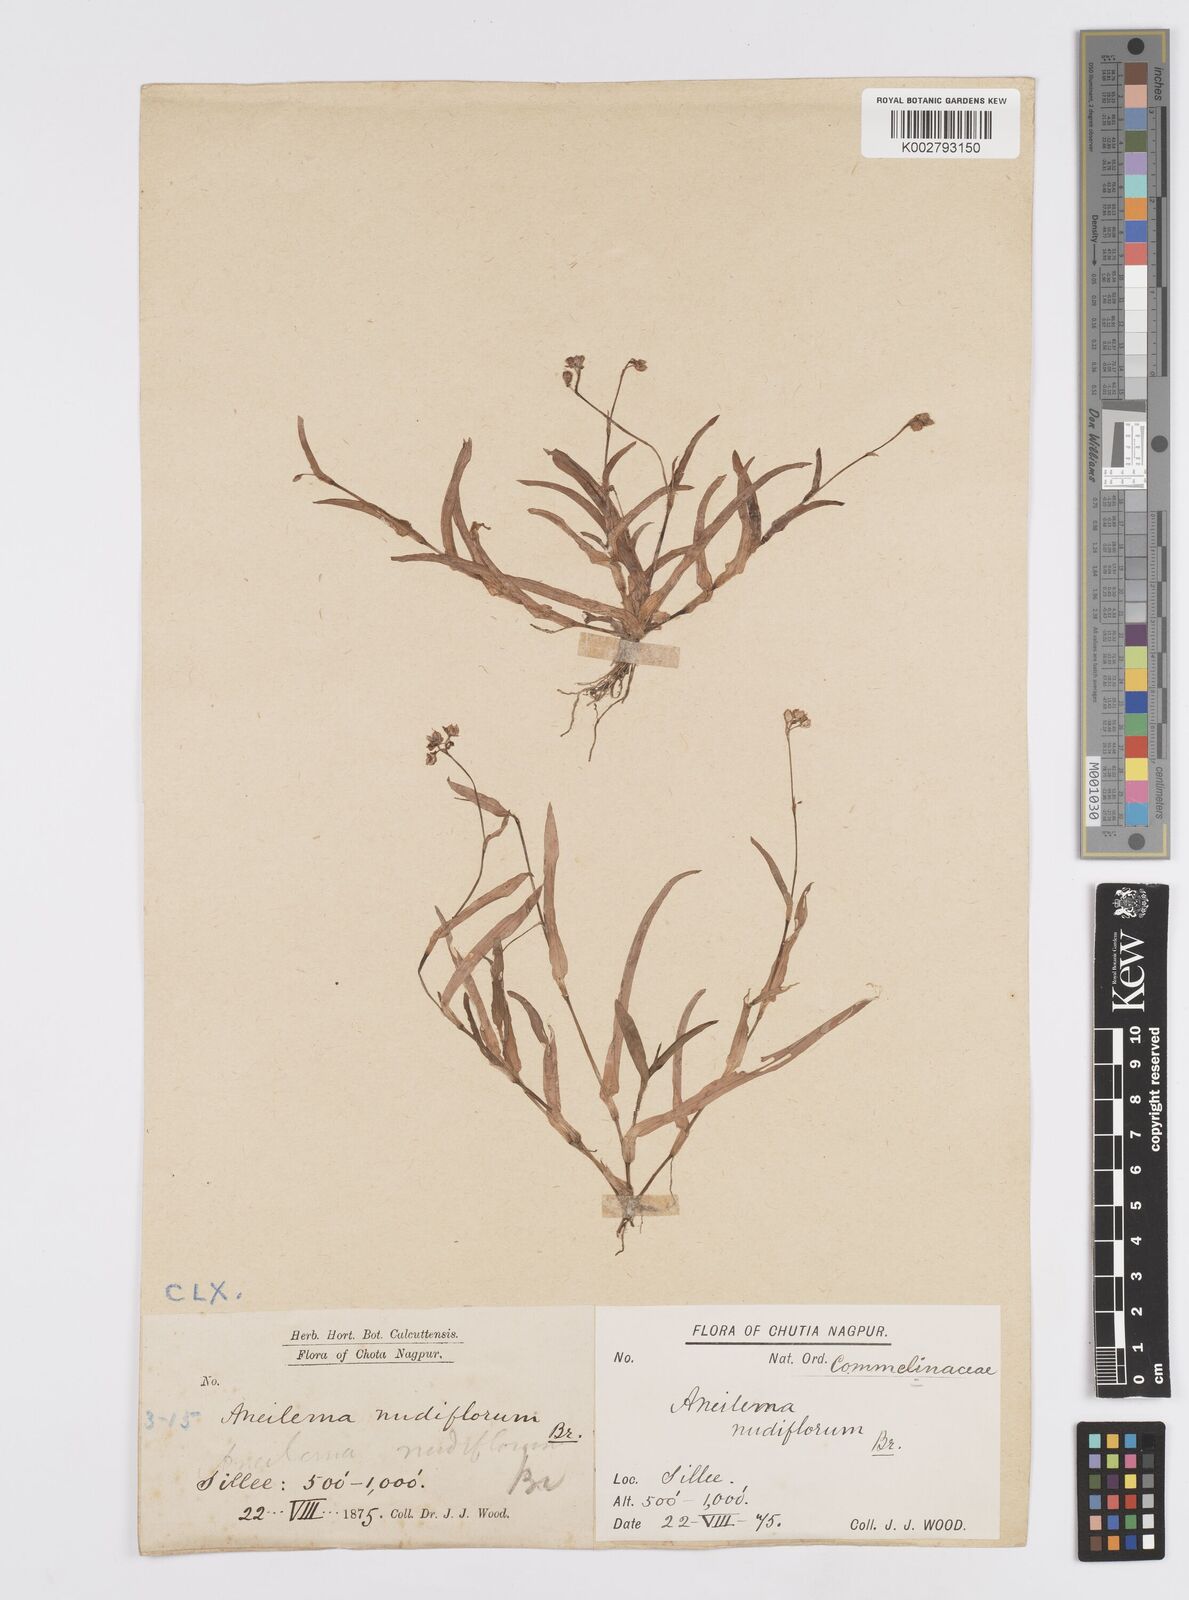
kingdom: Plantae
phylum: Tracheophyta
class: Liliopsida
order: Commelinales
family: Commelinaceae
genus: Murdannia
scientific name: Murdannia nudiflora
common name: Nakedstem dewflower
